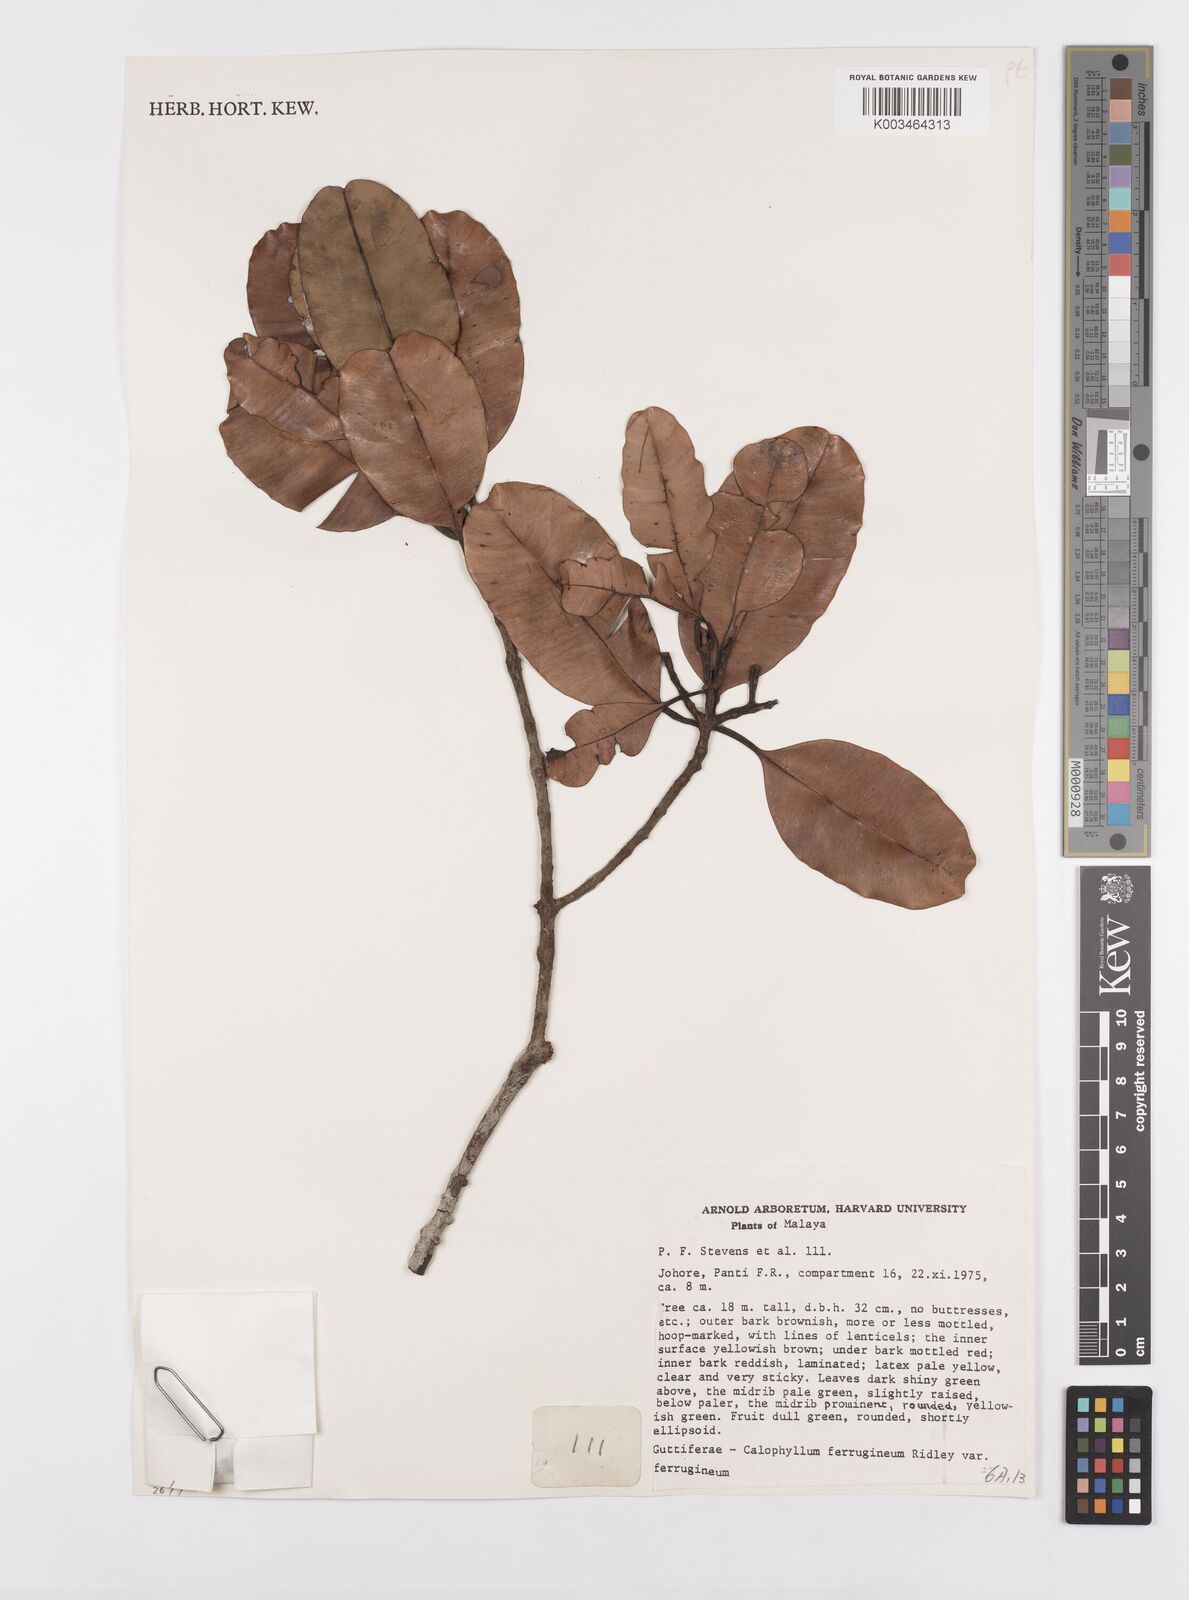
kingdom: Plantae
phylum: Tracheophyta
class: Magnoliopsida
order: Malpighiales
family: Calophyllaceae
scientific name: Calophyllaceae
